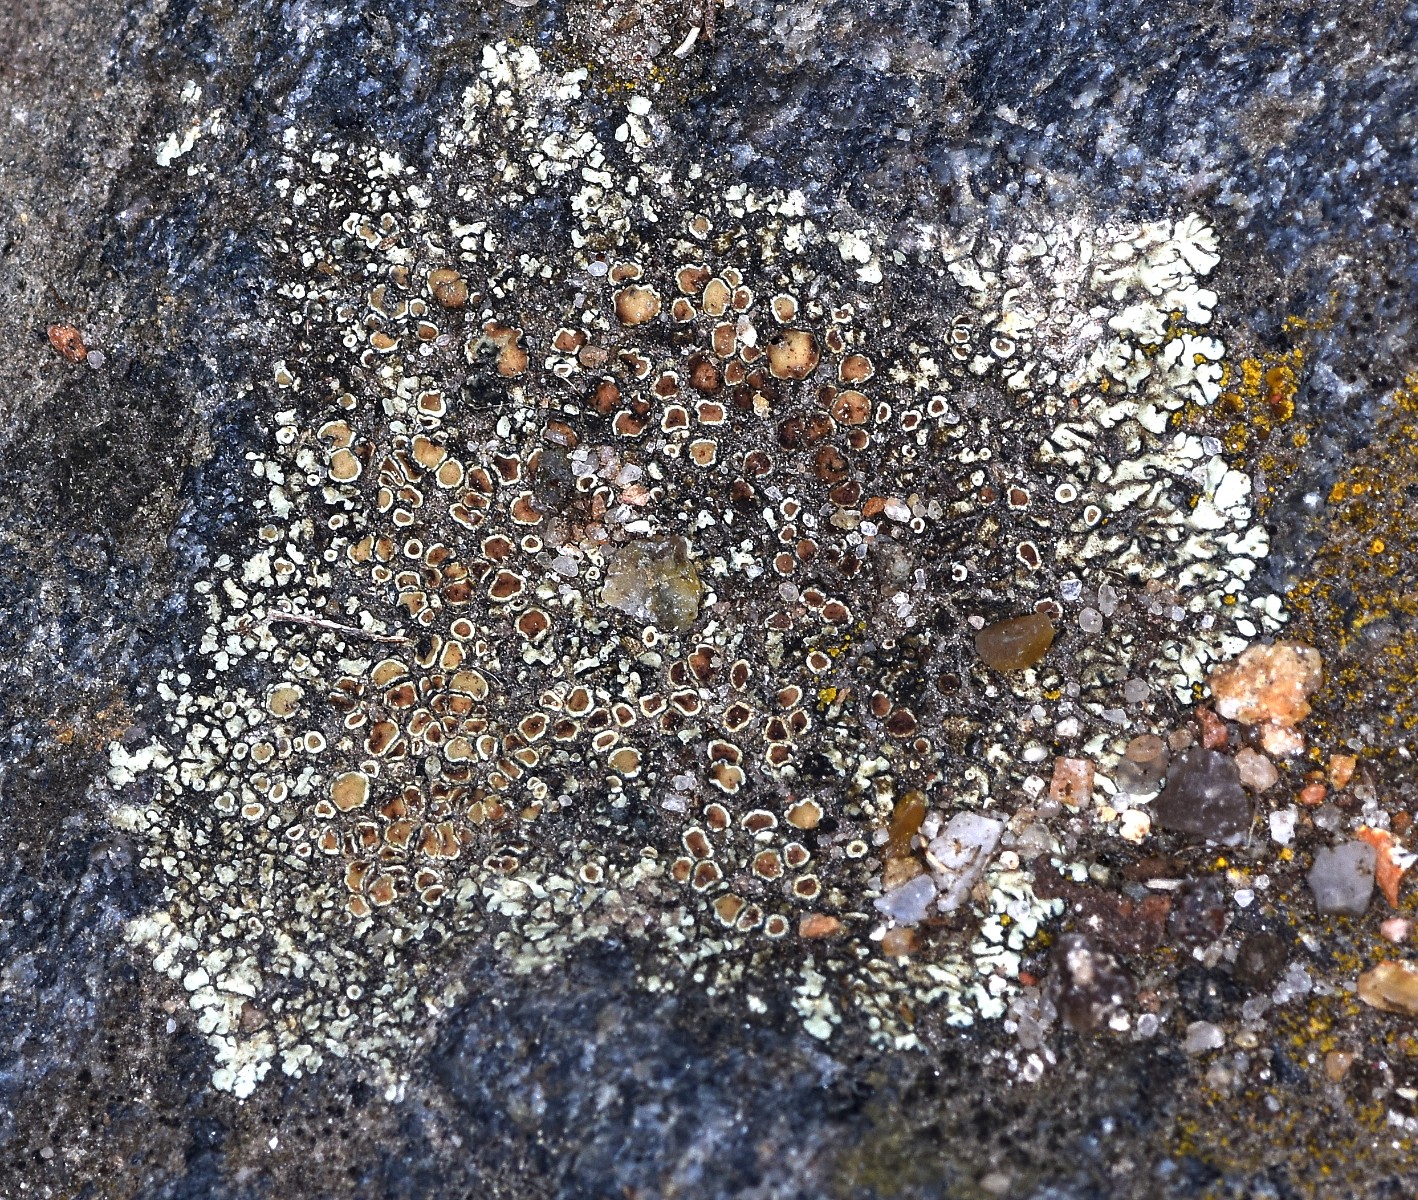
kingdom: Fungi
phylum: Ascomycota
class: Lecanoromycetes
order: Lecanorales
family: Lecanoraceae
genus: Protoparmeliopsis
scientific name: Protoparmeliopsis muralis
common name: randfliget kantskivelav
